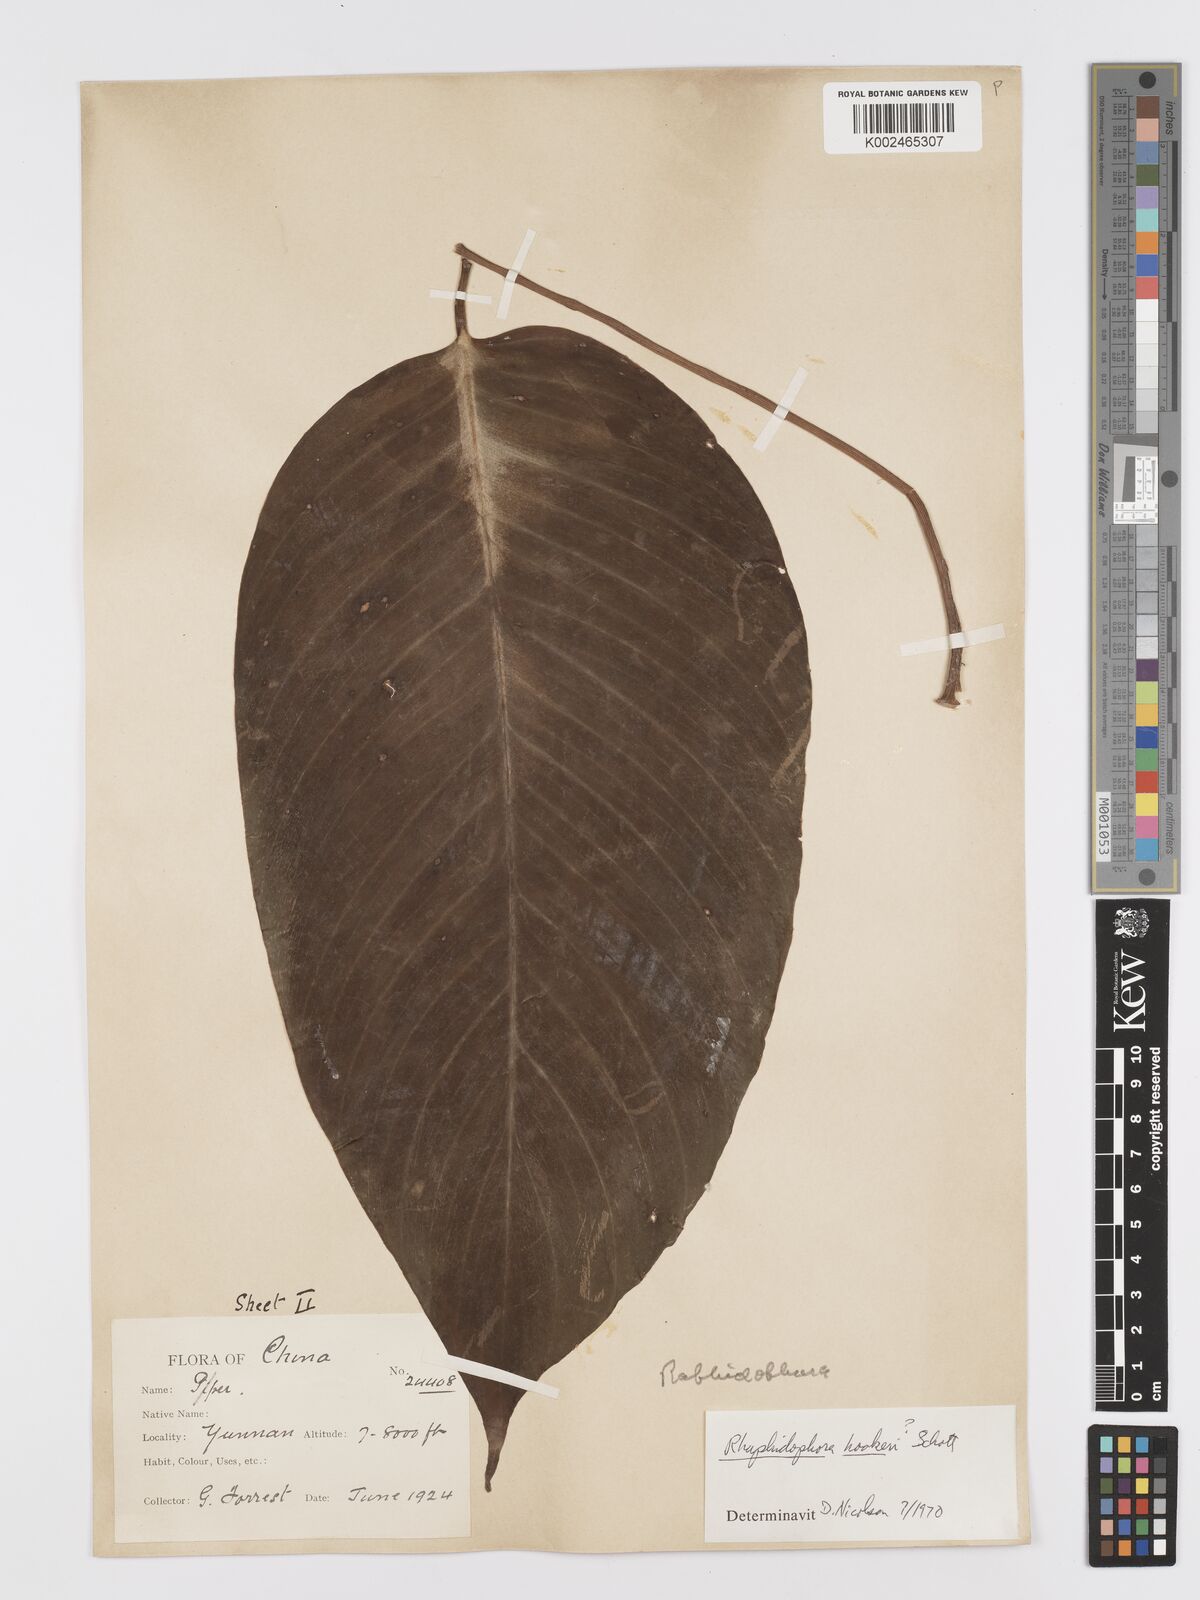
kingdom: Plantae
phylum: Tracheophyta
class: Liliopsida
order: Alismatales
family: Araceae
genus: Rhaphidophora
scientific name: Rhaphidophora
